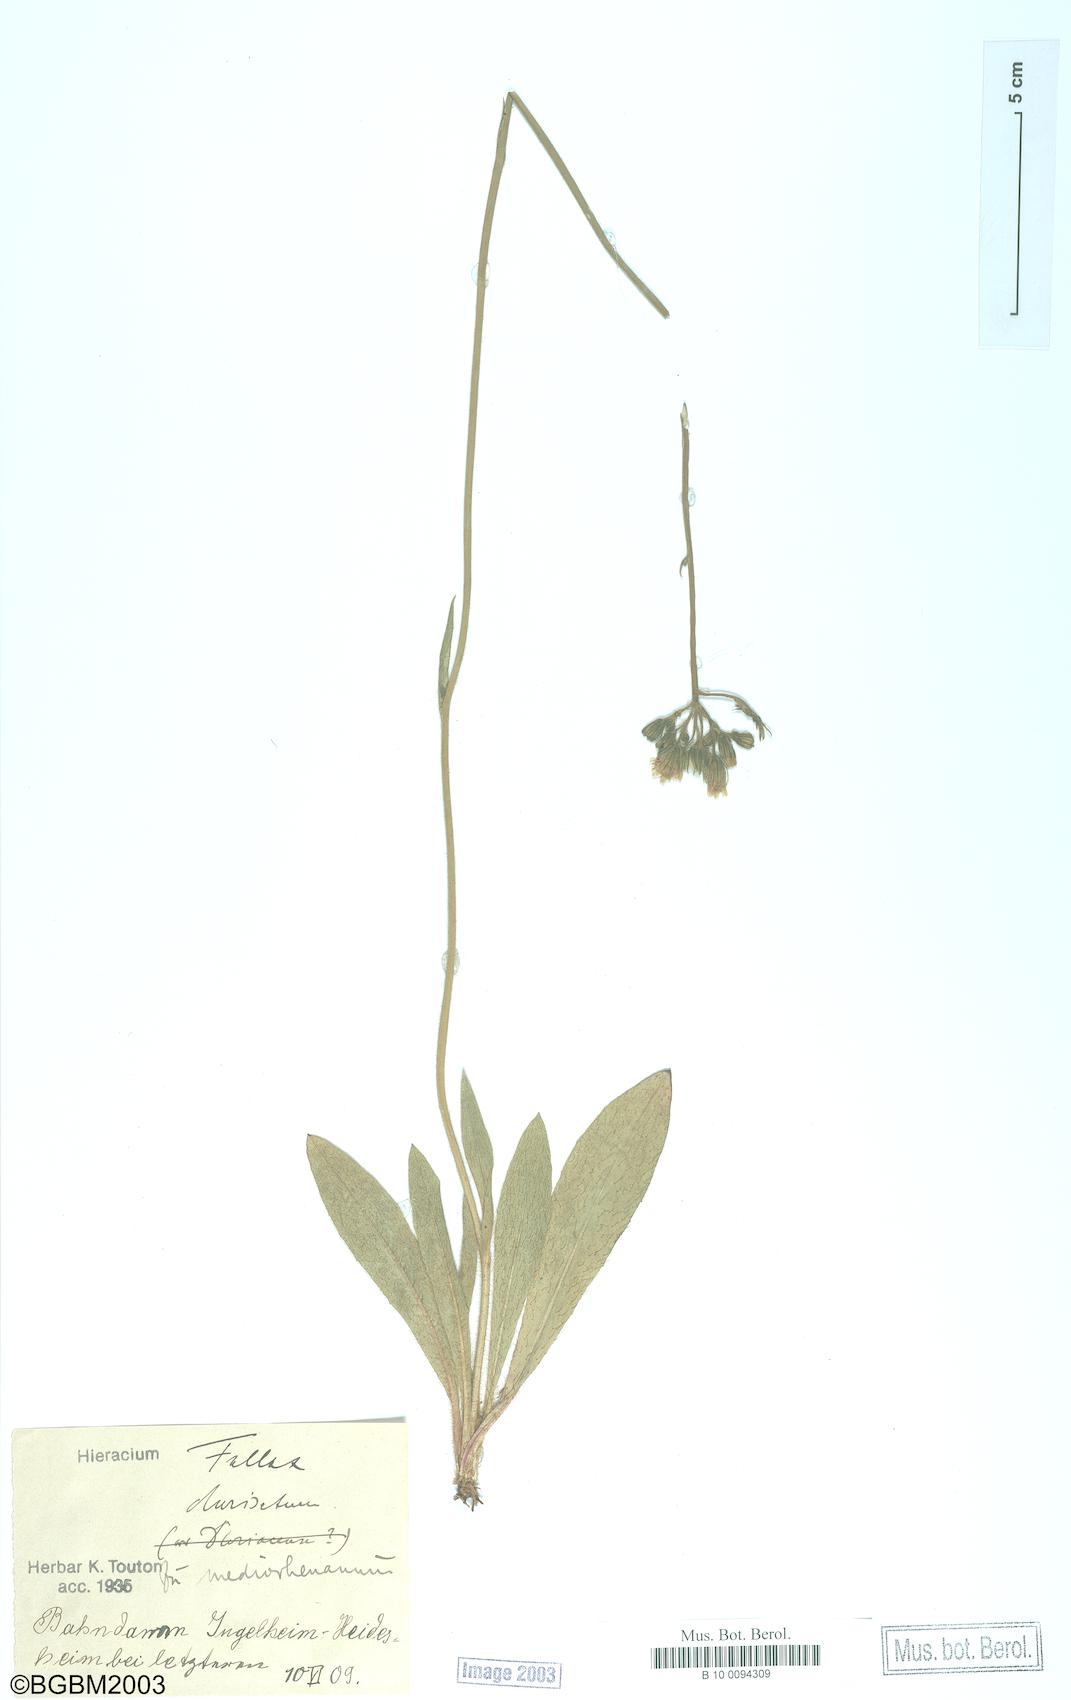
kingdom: Plantae
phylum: Tracheophyta
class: Magnoliopsida
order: Asterales
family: Asteraceae
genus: Hieracium
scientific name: Hieracium fallax
